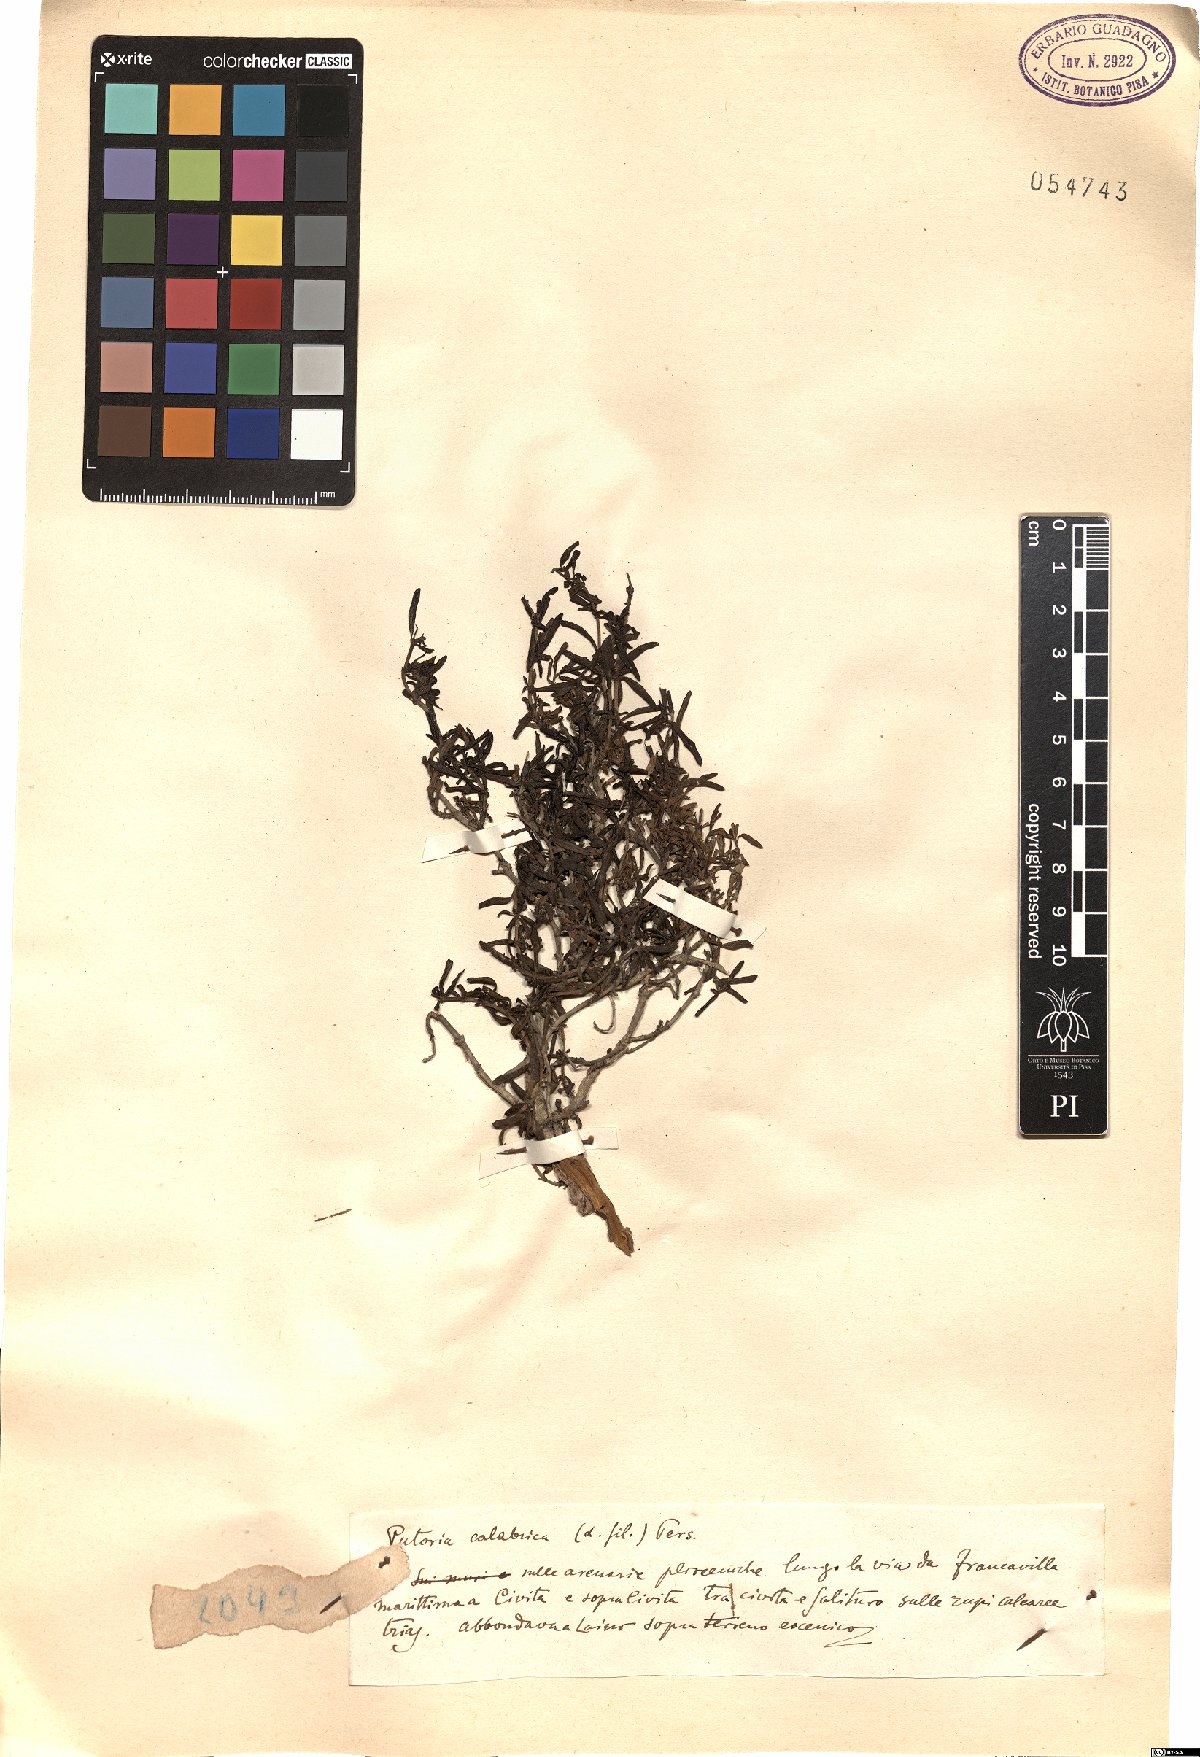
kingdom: Plantae
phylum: Tracheophyta
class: Magnoliopsida
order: Gentianales
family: Rubiaceae
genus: Plocama
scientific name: Plocama calabrica
